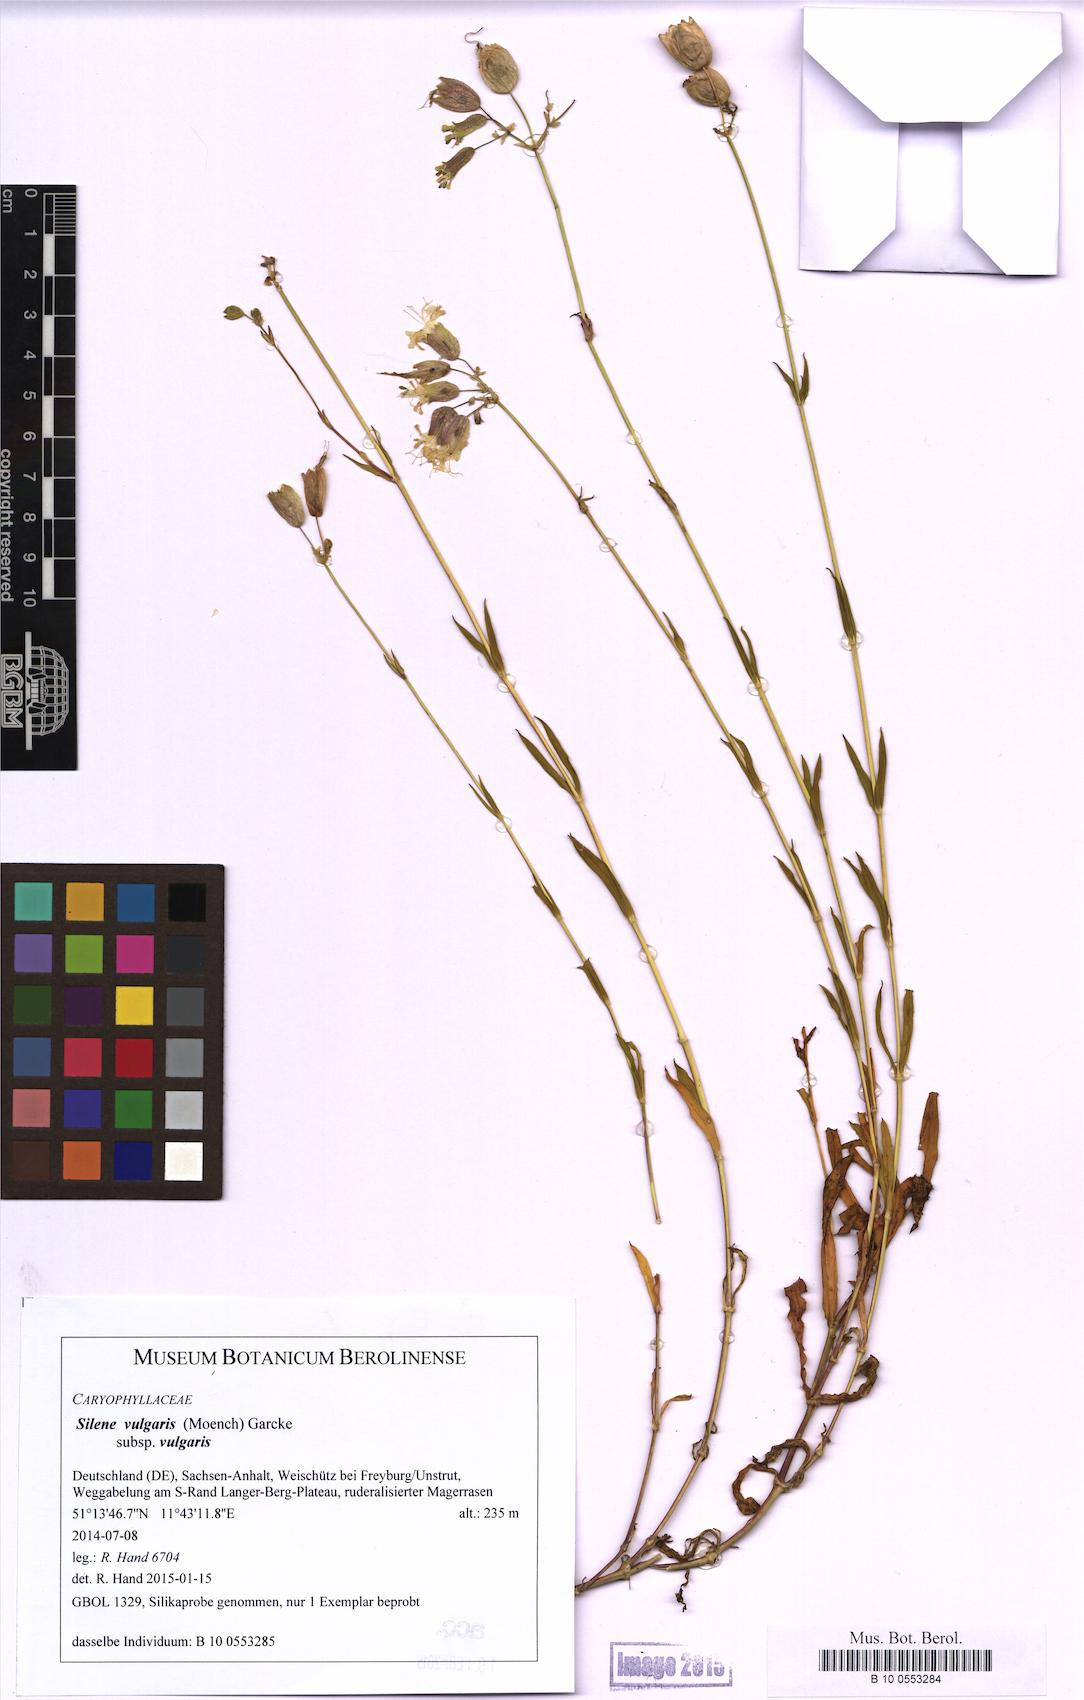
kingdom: Plantae
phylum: Tracheophyta
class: Magnoliopsida
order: Caryophyllales
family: Caryophyllaceae
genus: Silene
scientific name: Silene vulgaris
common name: Bladder campion
